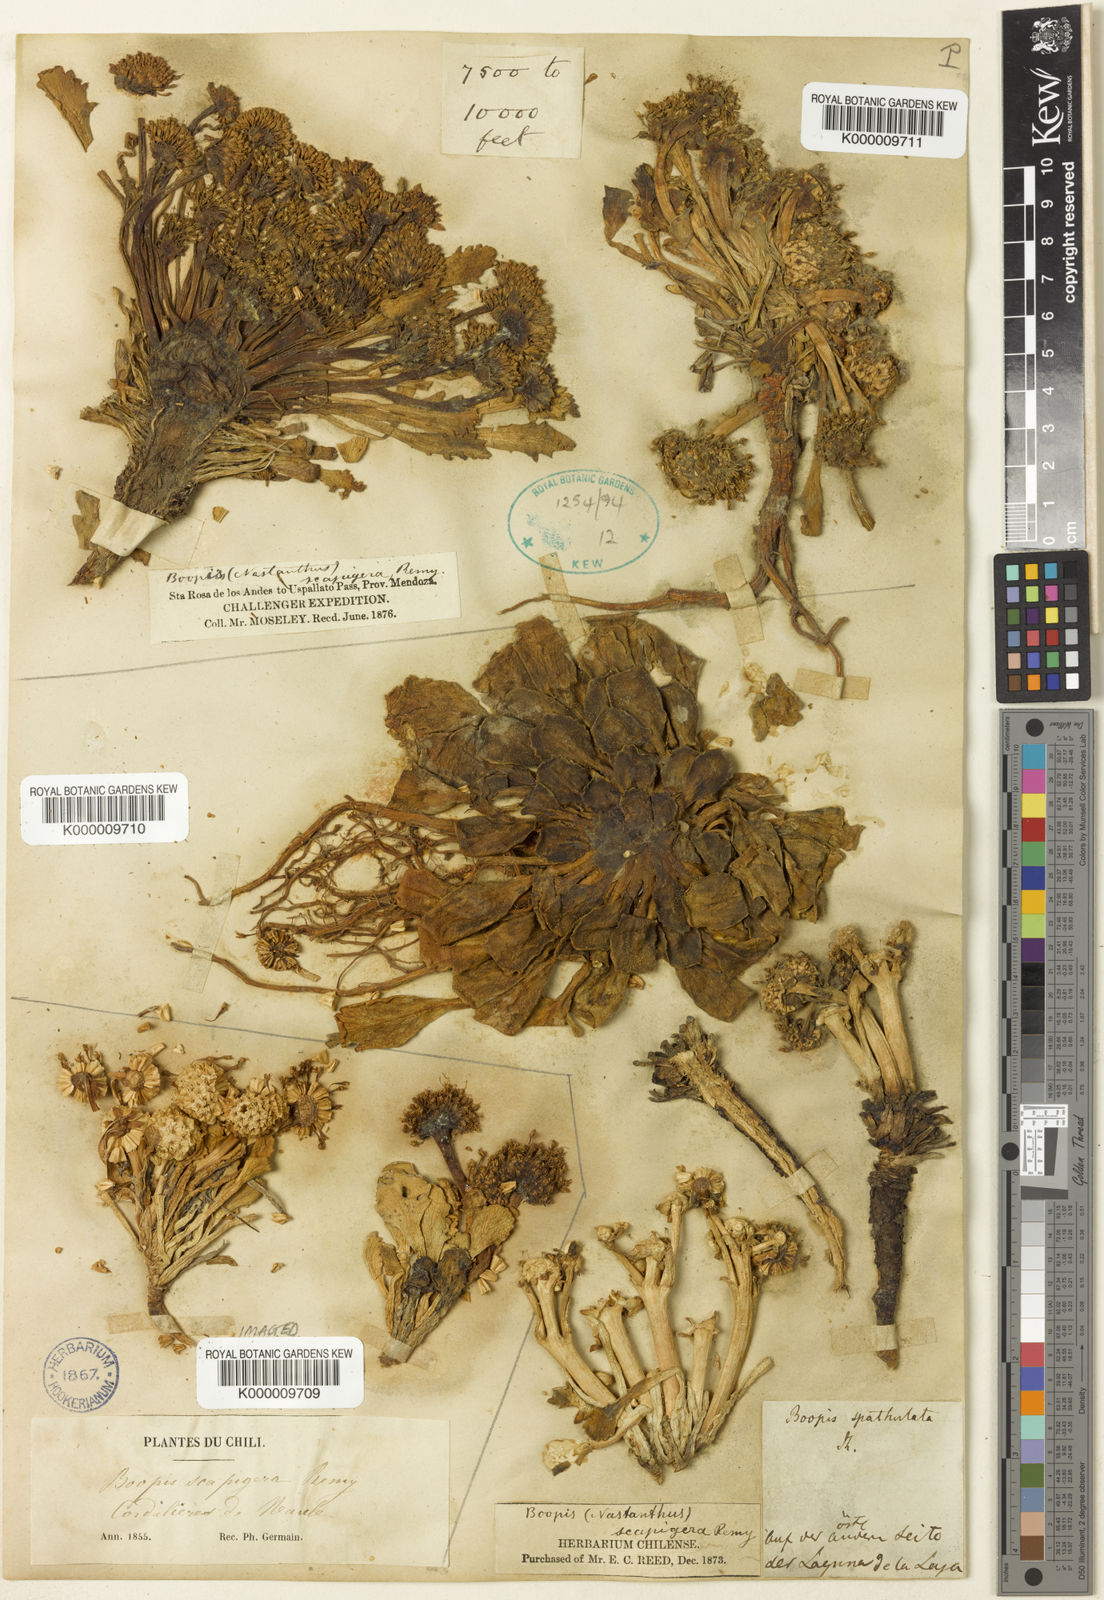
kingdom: Plantae
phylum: Tracheophyta
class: Magnoliopsida
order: Asterales
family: Calyceraceae
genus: Gamocarpha
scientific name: Gamocarpha scapigera
